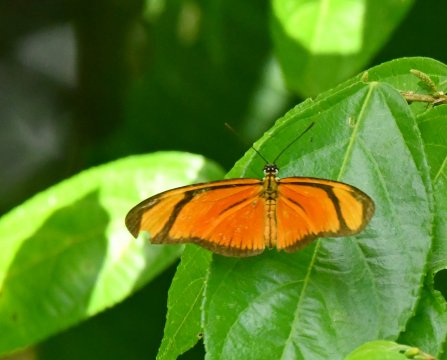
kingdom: Animalia
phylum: Arthropoda
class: Insecta
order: Lepidoptera
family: Nymphalidae
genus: Heliconius
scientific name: Heliconius aliphera
